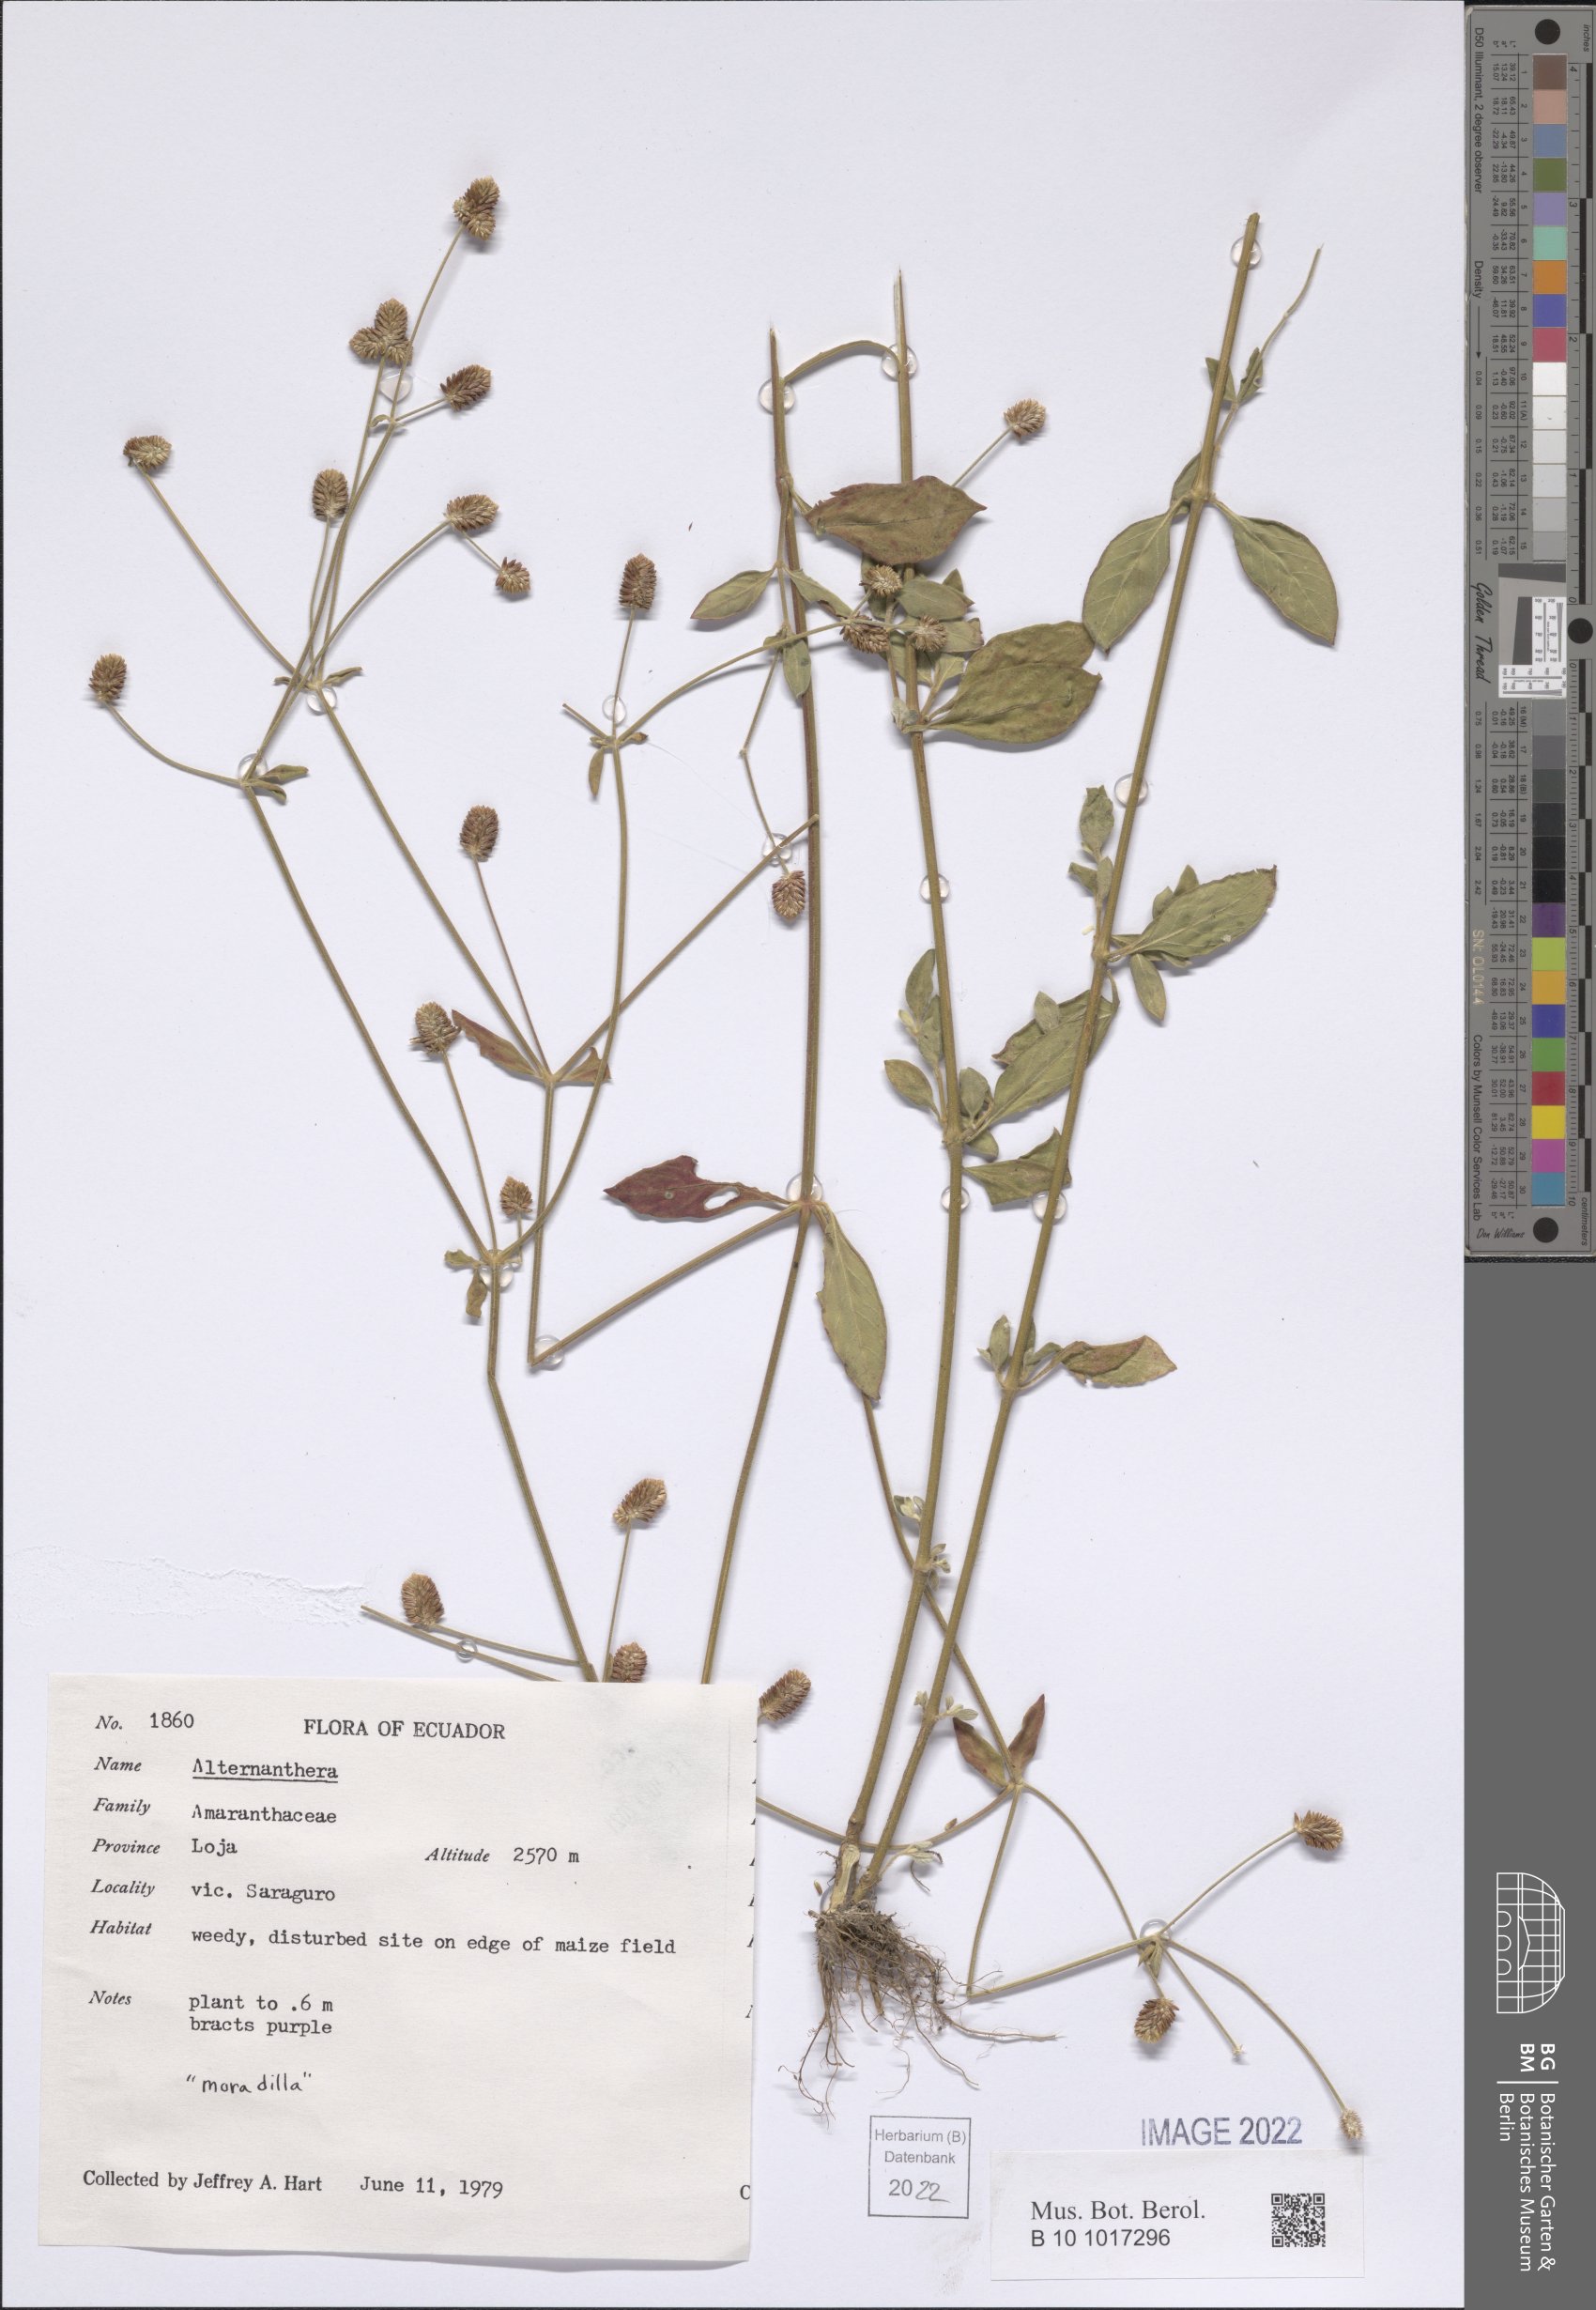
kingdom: Plantae
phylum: Tracheophyta
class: Magnoliopsida
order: Caryophyllales
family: Amaranthaceae
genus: Alternanthera
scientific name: Alternanthera
